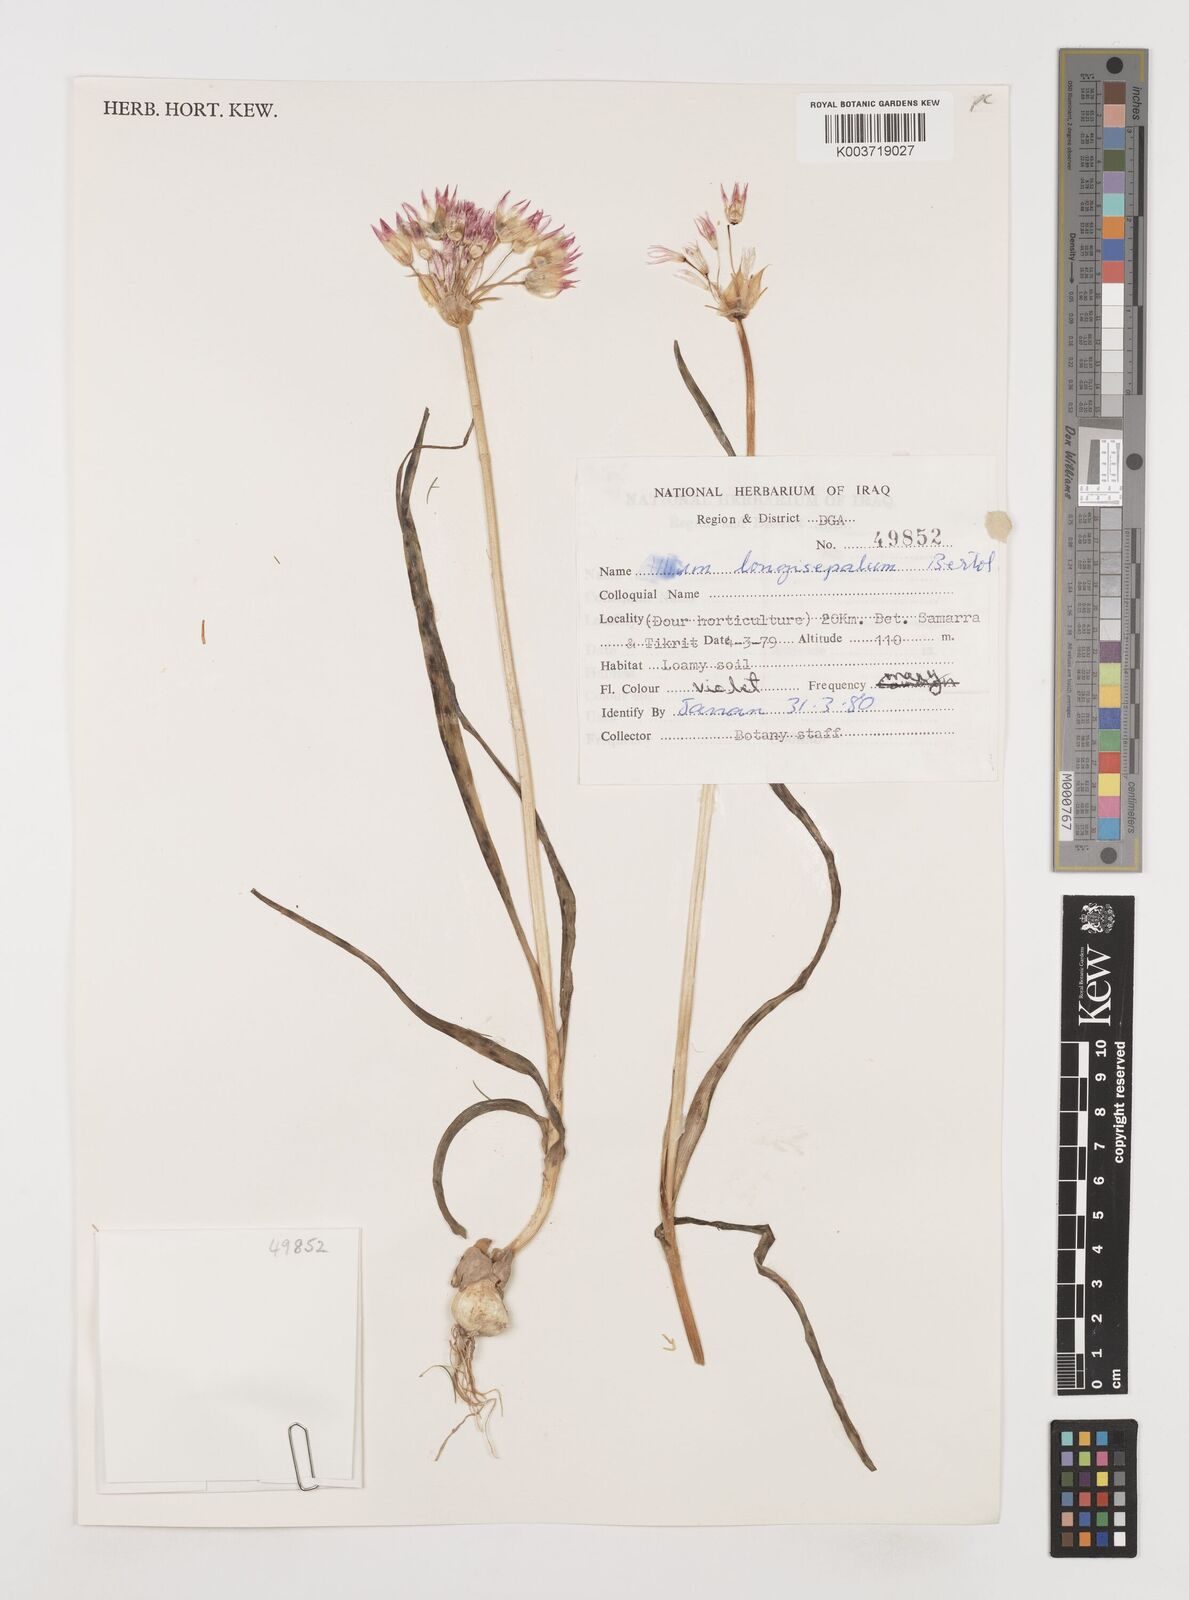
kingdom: Plantae
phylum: Tracheophyta
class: Liliopsida
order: Asparagales
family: Amaryllidaceae
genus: Allium
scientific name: Allium longisepalum
